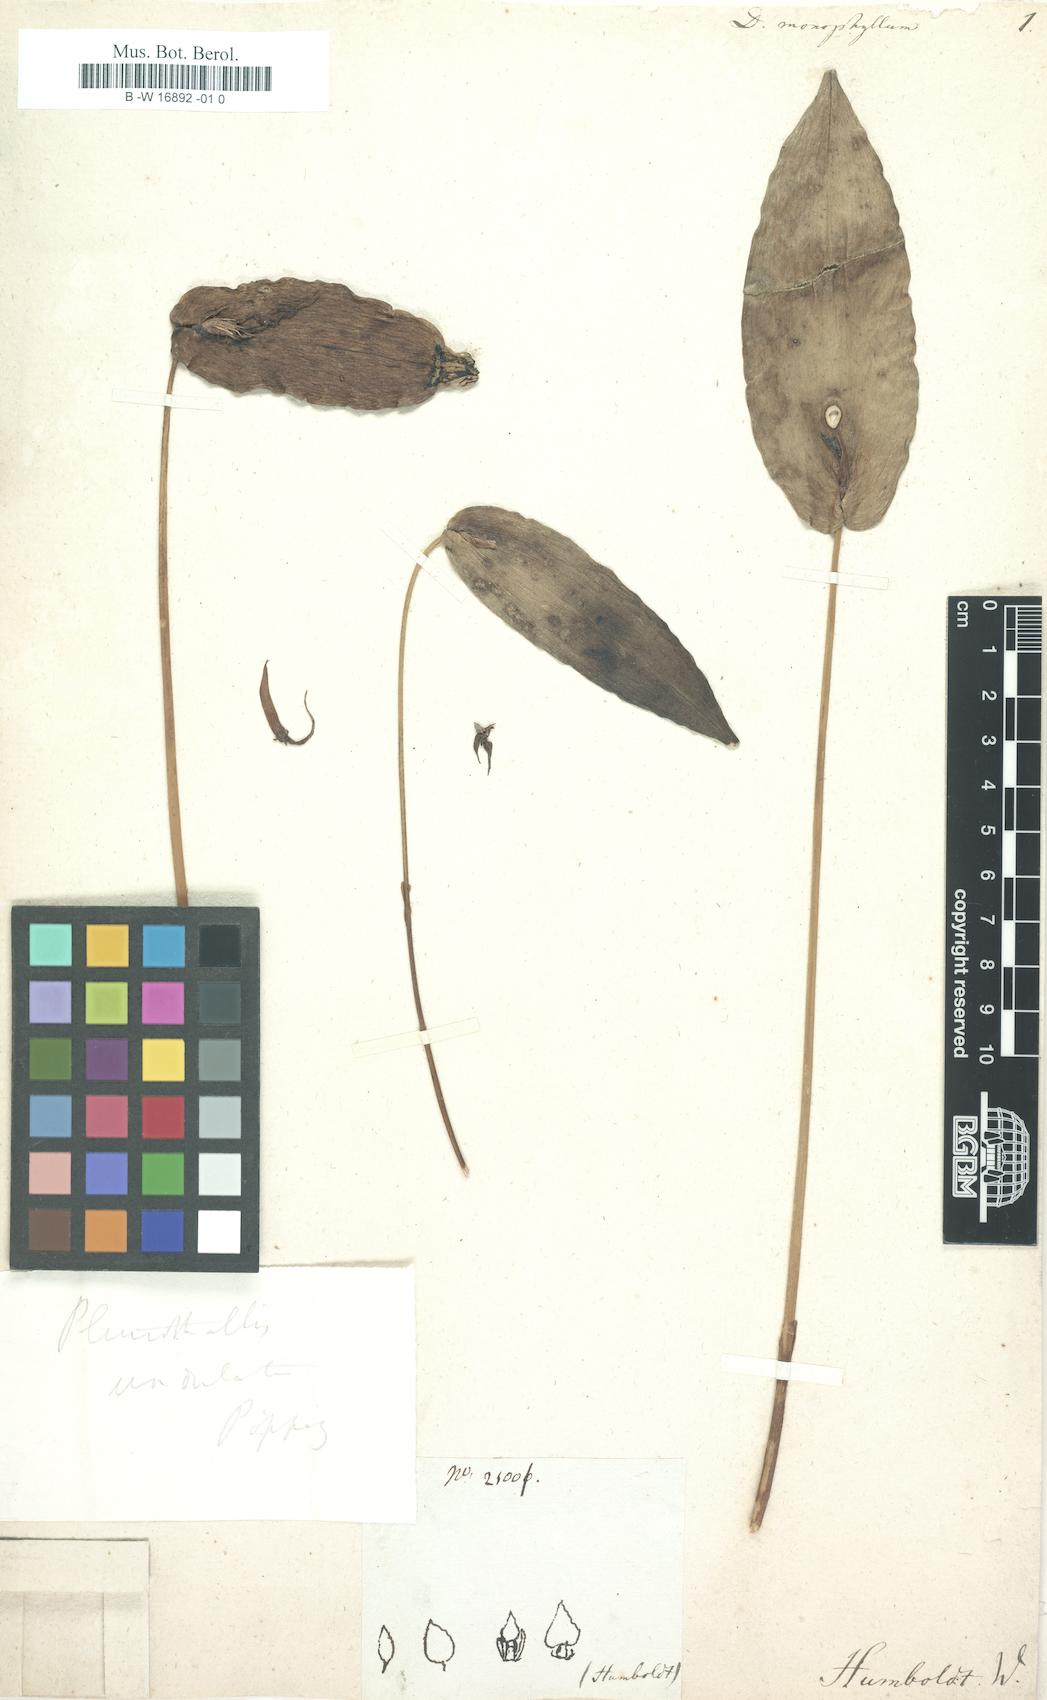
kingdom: Plantae
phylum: Tracheophyta
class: Liliopsida
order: Asparagales
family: Orchidaceae
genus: Dendrobium
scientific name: Dendrobium monophyllum
